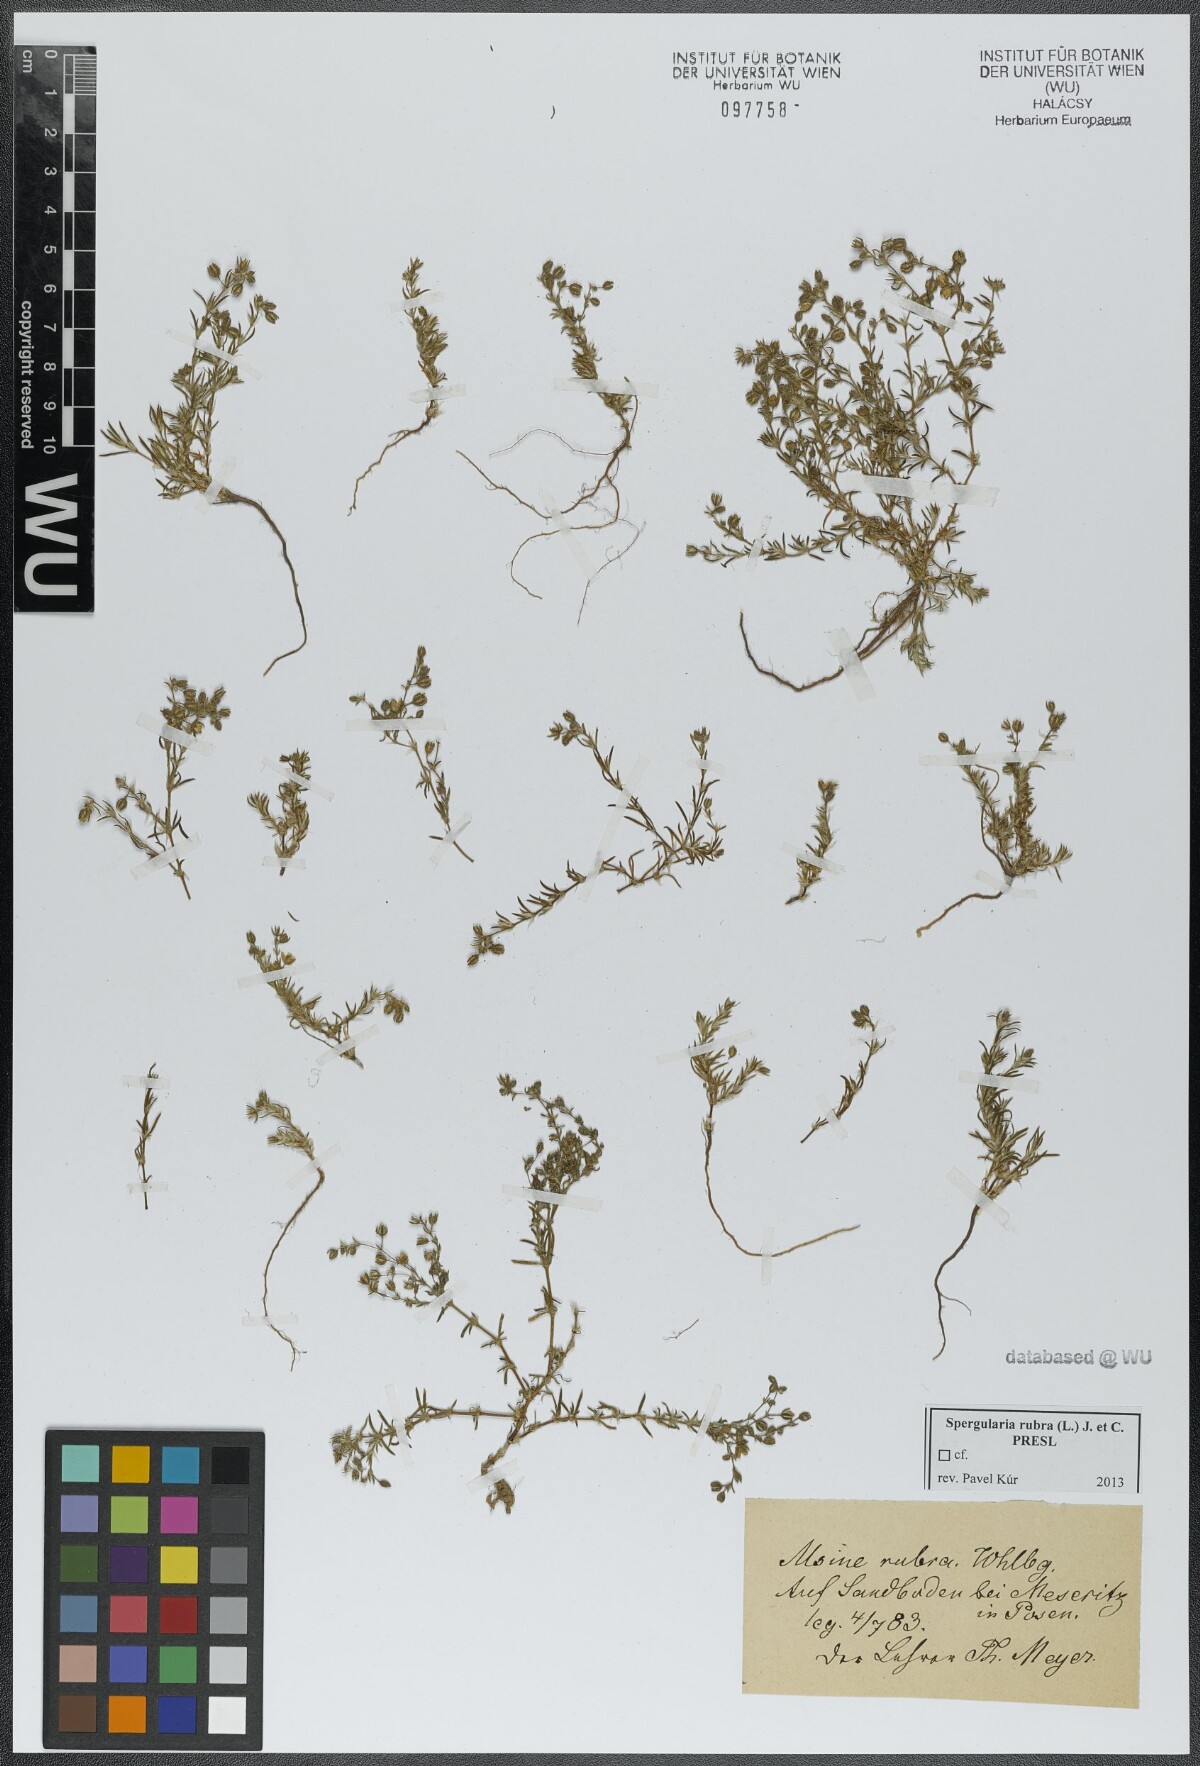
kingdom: Plantae
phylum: Tracheophyta
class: Magnoliopsida
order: Caryophyllales
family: Caryophyllaceae
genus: Spergularia
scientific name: Spergularia rubra
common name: Red sand-spurrey
